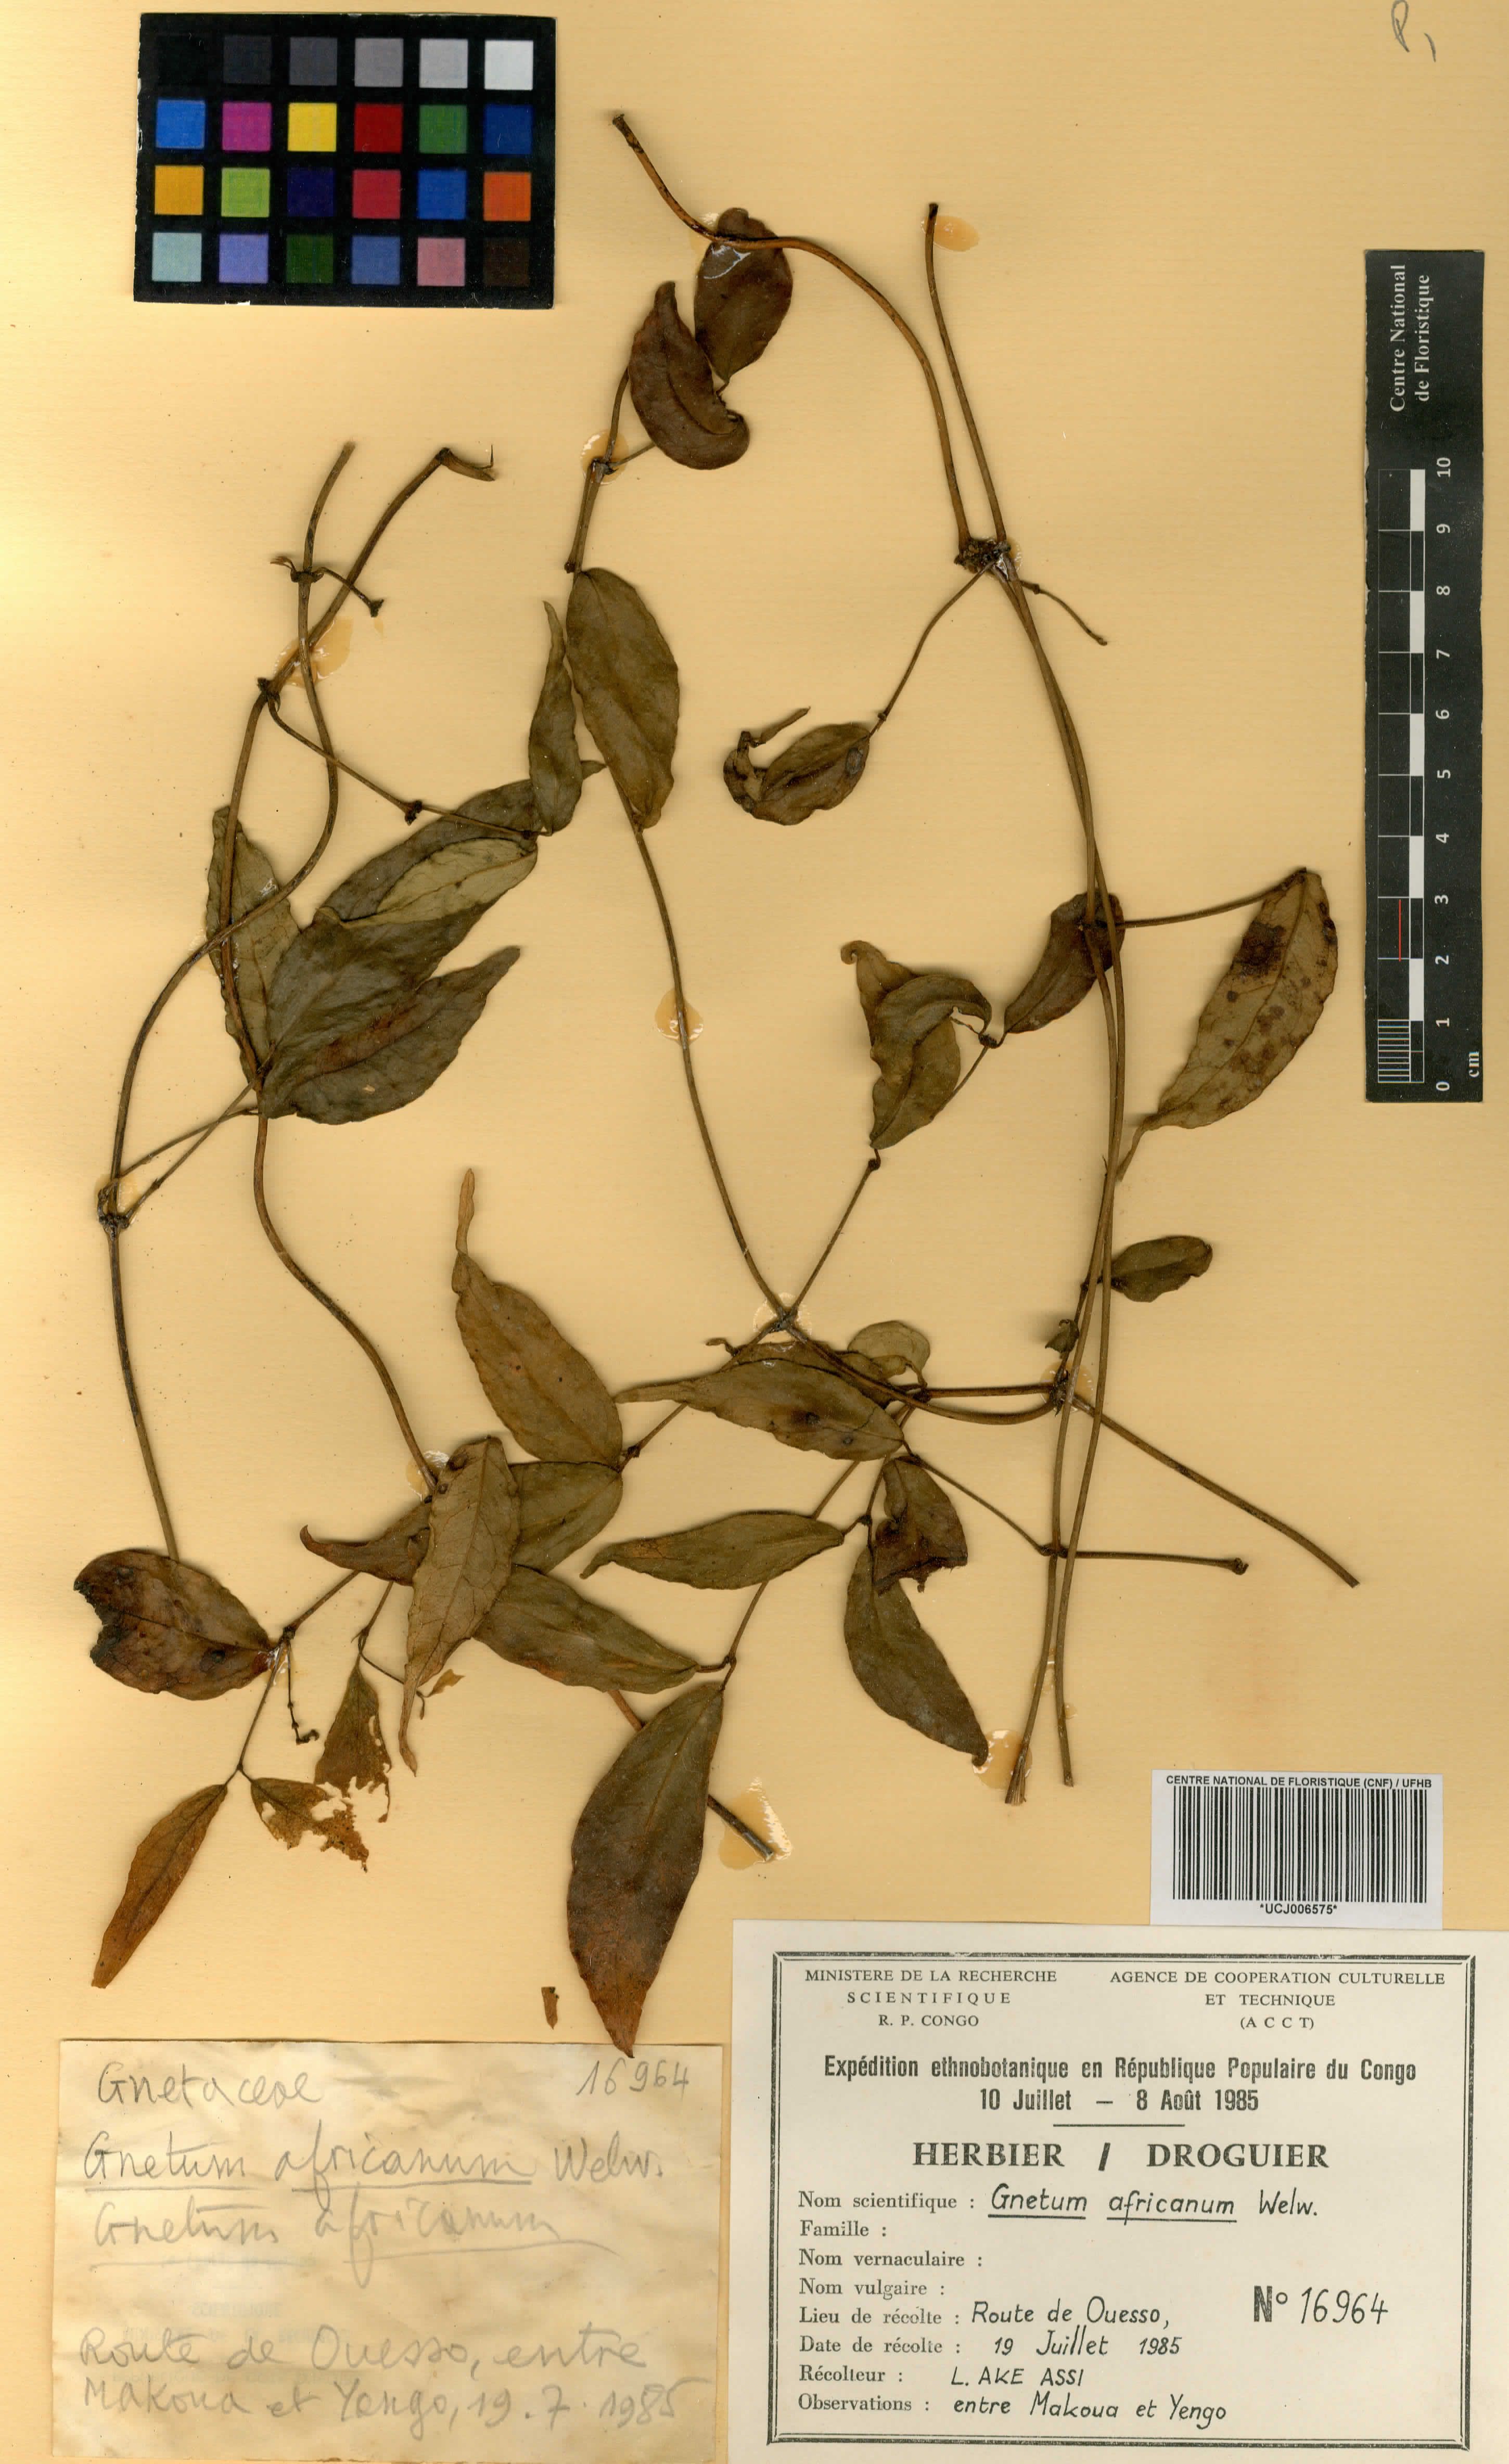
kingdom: Plantae
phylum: Tracheophyta
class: Gnetopsida
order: Gnetales
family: Gnetaceae
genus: Gnetum
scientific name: Gnetum africanum
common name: Eru
